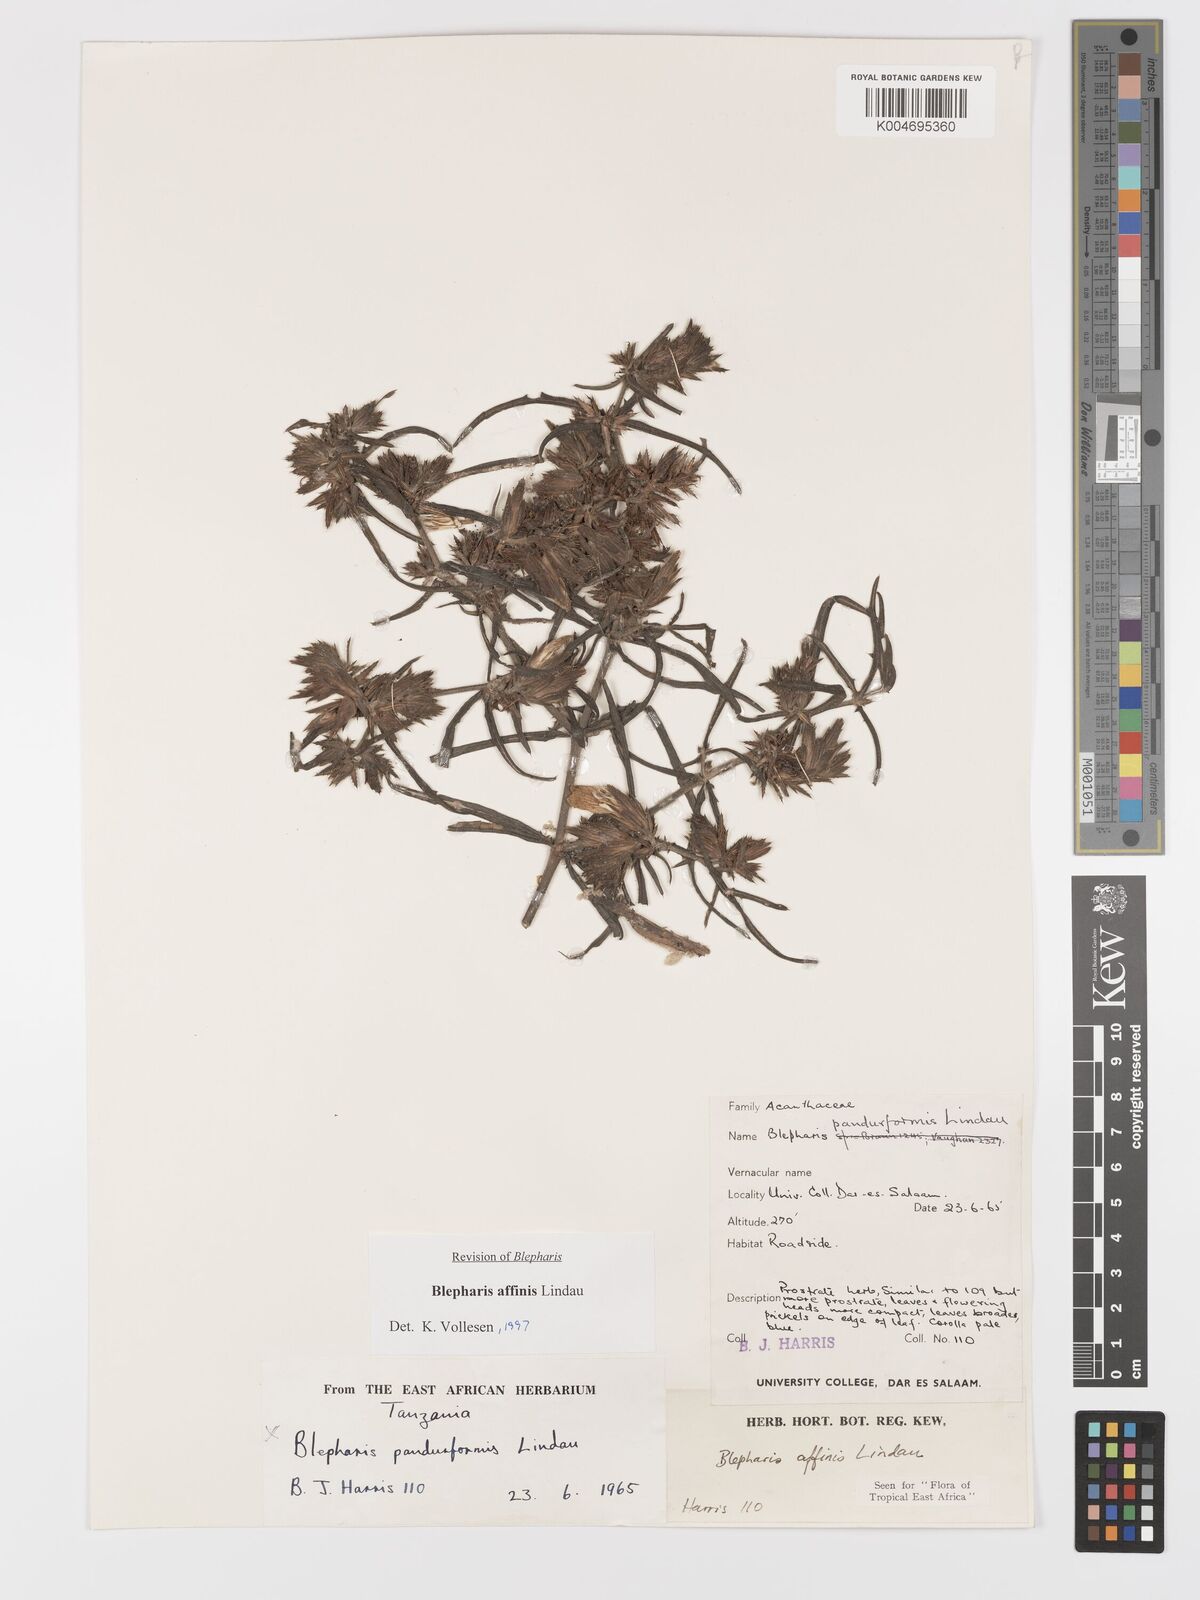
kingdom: Plantae
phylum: Tracheophyta
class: Magnoliopsida
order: Lamiales
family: Acanthaceae
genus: Blepharis
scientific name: Blepharis affinis
